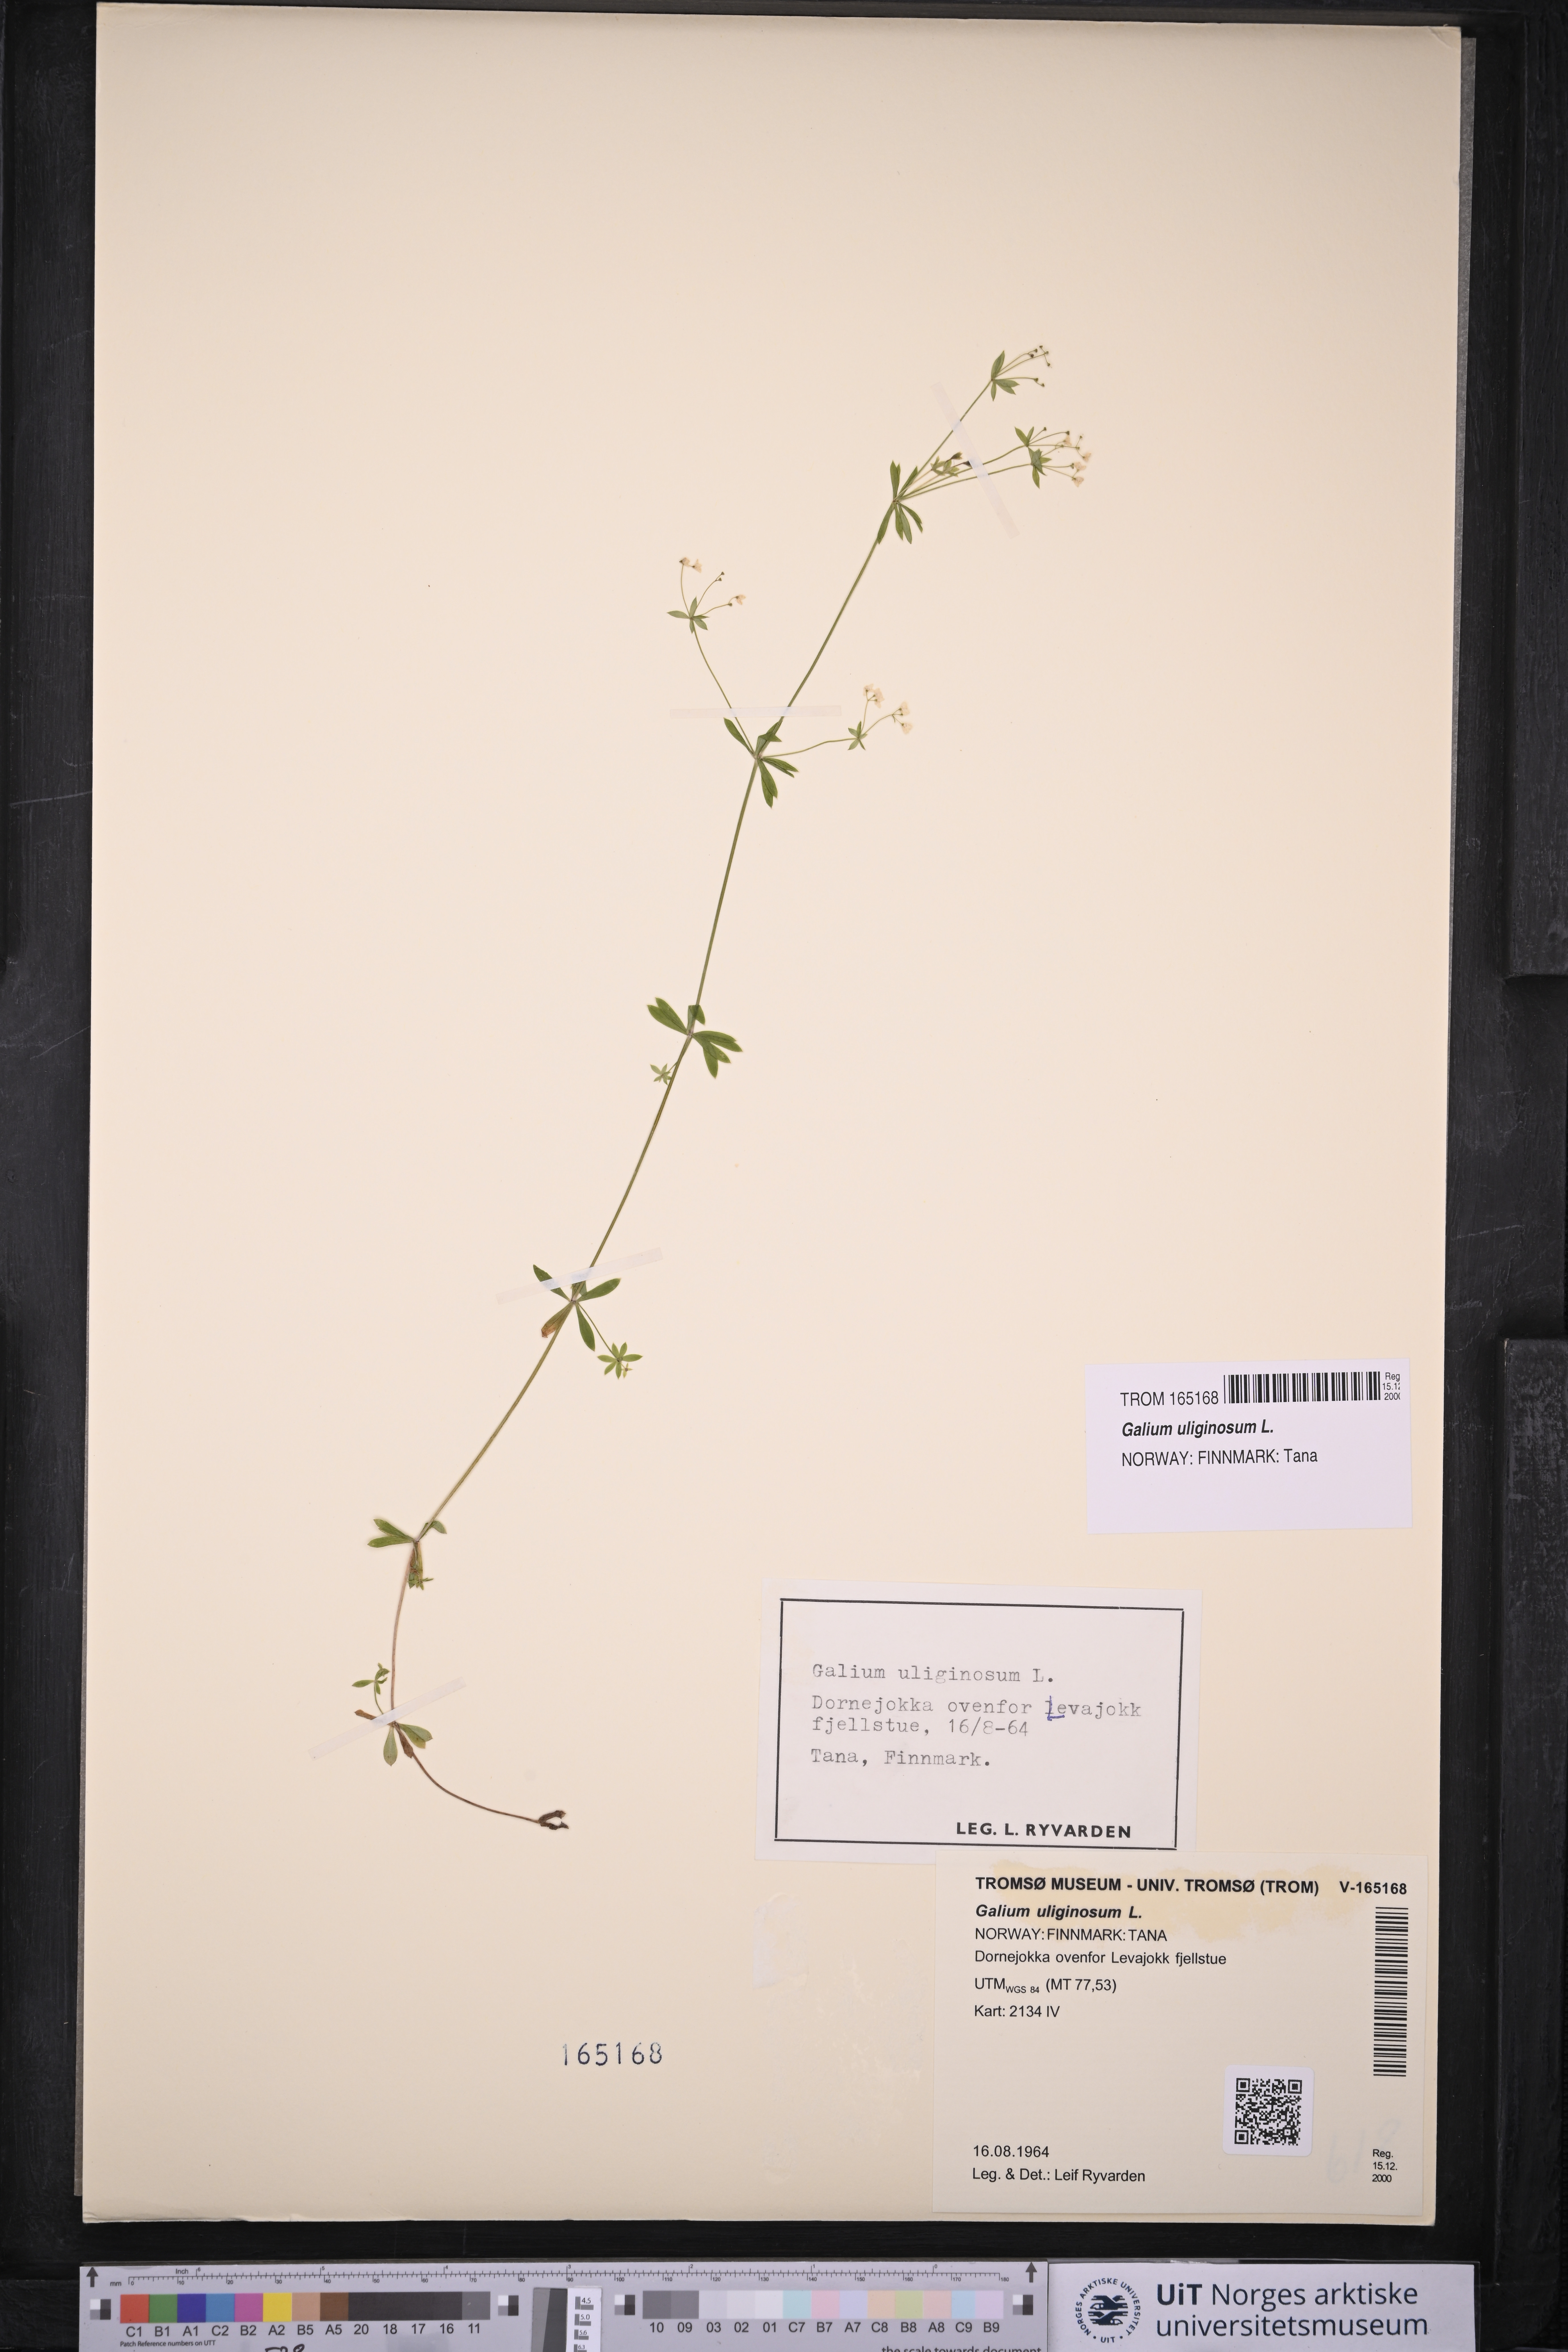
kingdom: Plantae
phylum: Tracheophyta
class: Magnoliopsida
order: Gentianales
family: Rubiaceae
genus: Galium
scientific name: Galium uliginosum
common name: Fen bedstraw
